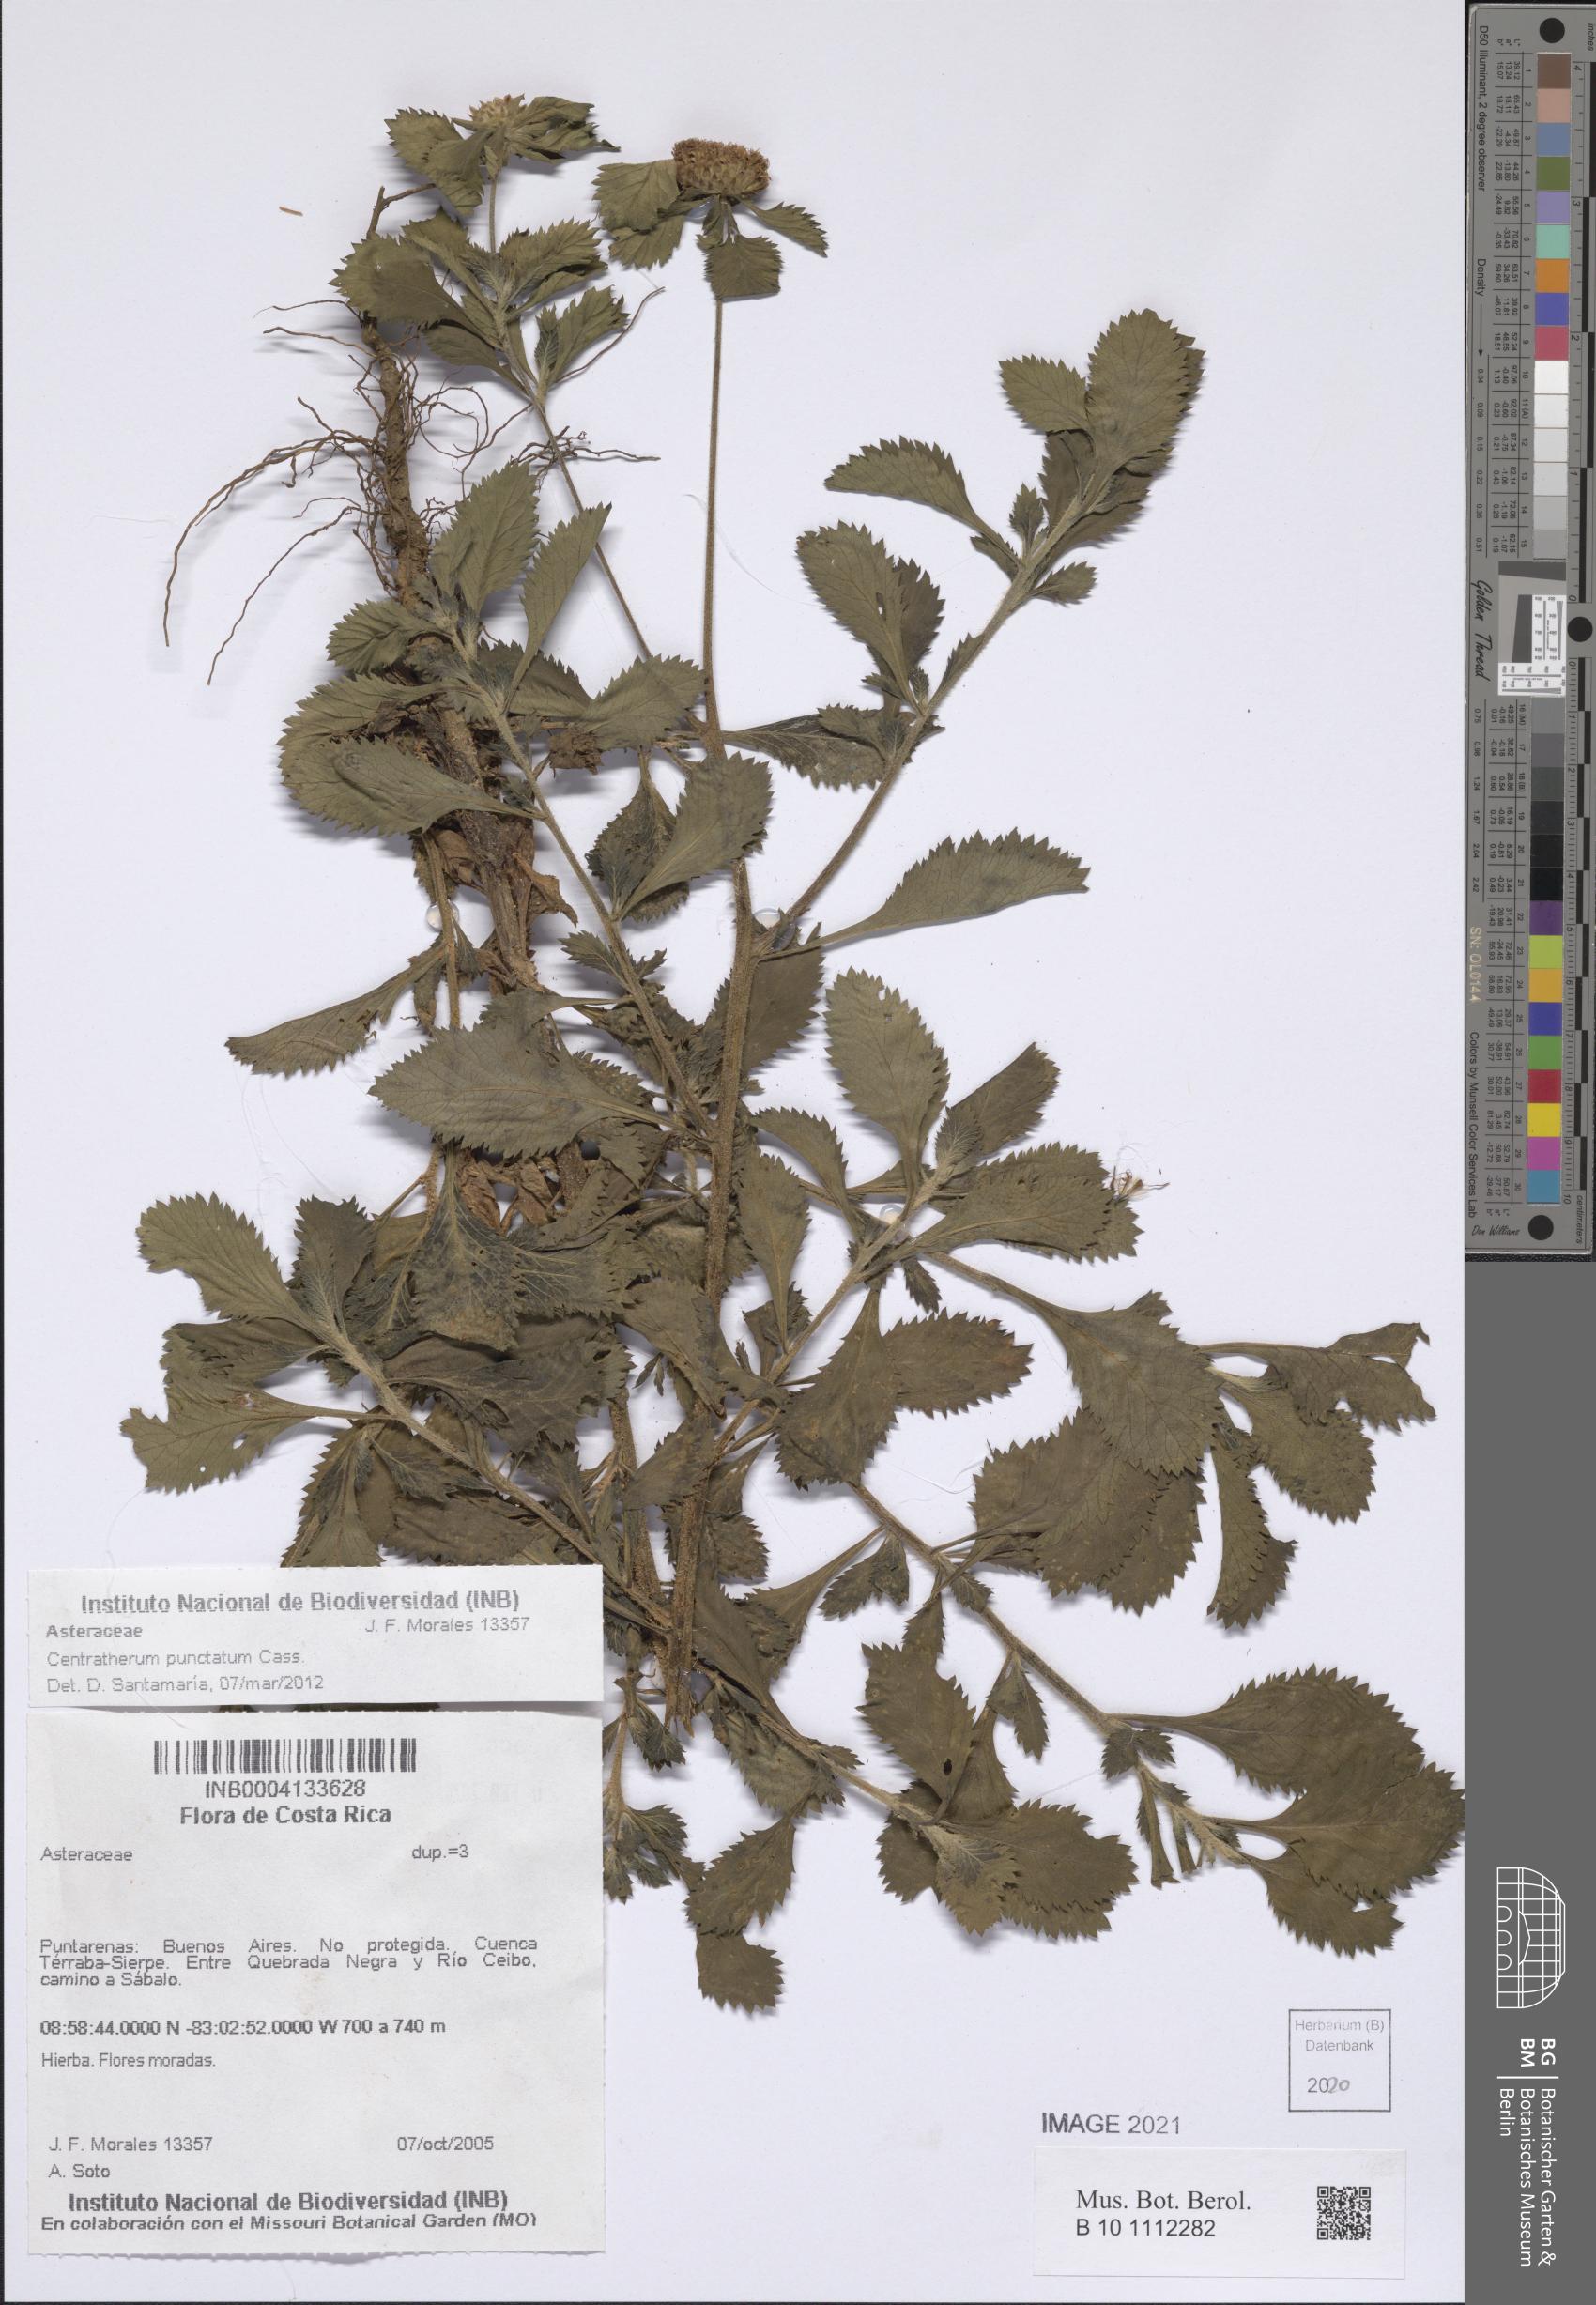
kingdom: Plantae
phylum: Tracheophyta
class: Magnoliopsida
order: Asterales
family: Asteraceae
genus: Centratherum
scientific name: Centratherum punctatum
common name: Larkdaisy
